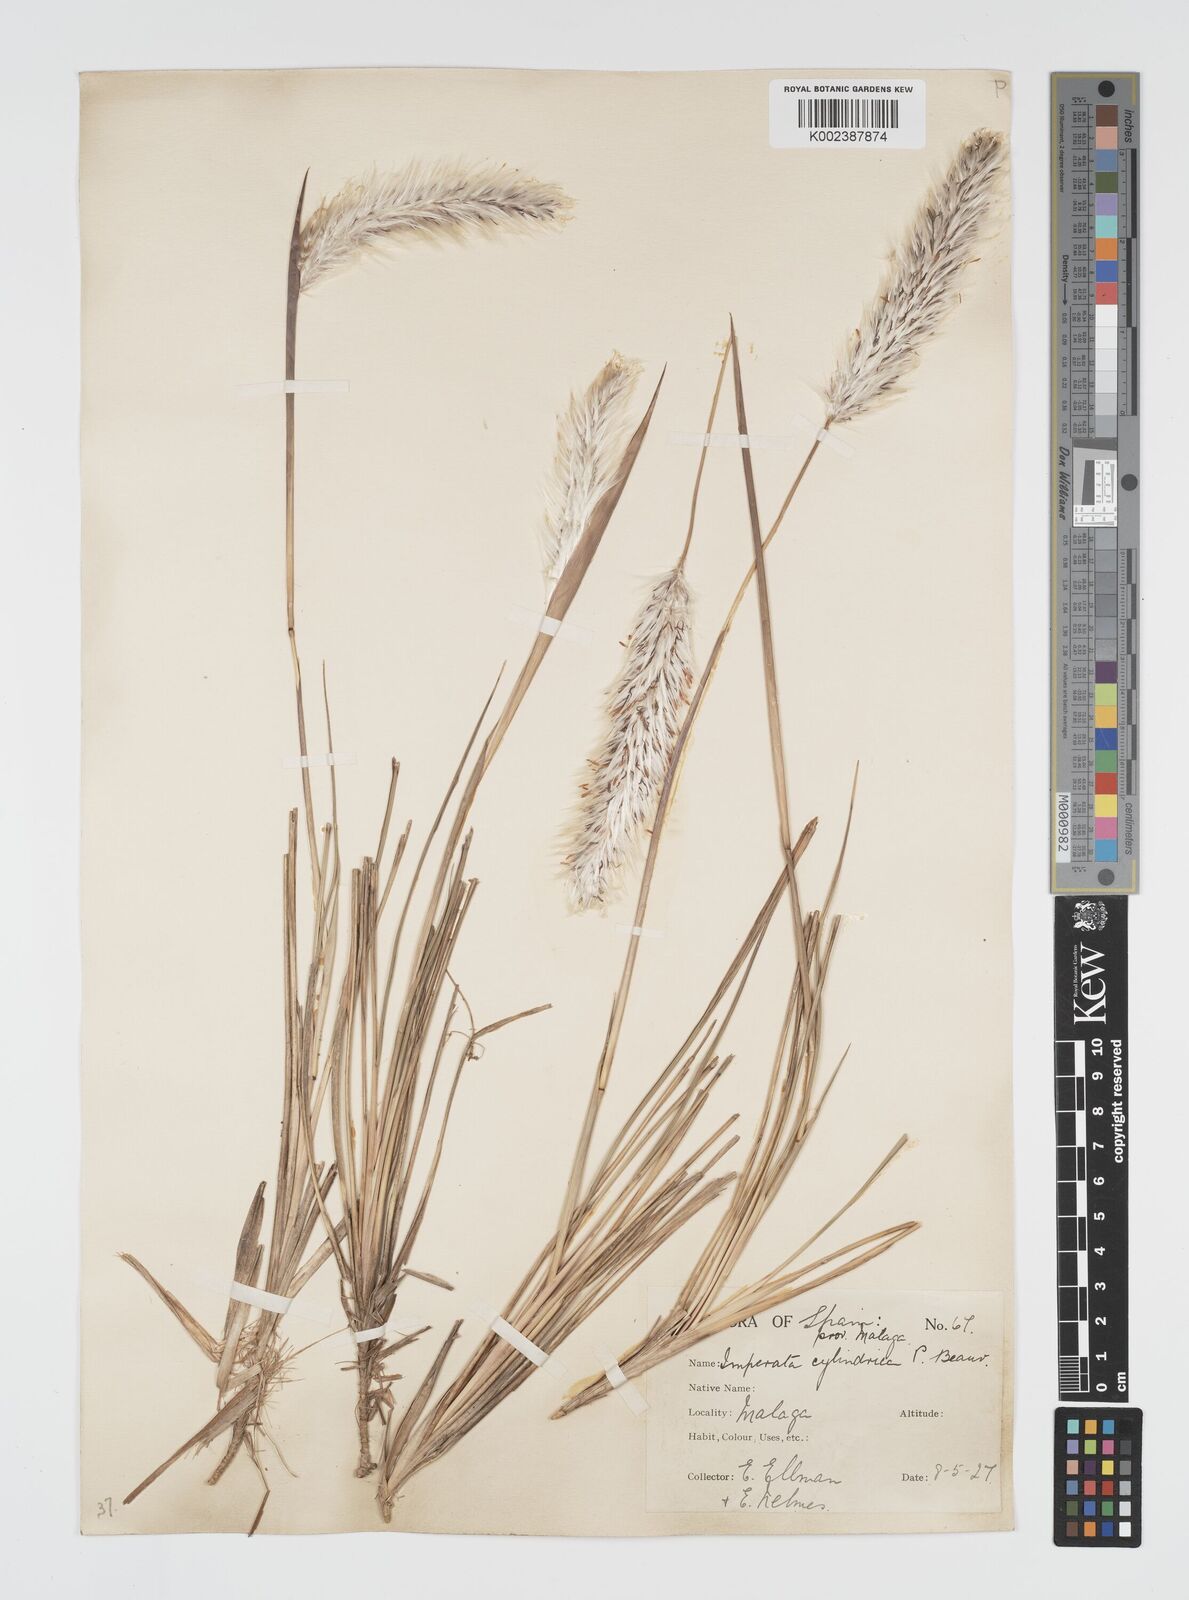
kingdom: Plantae
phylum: Tracheophyta
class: Liliopsida
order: Poales
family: Poaceae
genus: Imperata
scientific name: Imperata cylindrica
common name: Cogongrass
